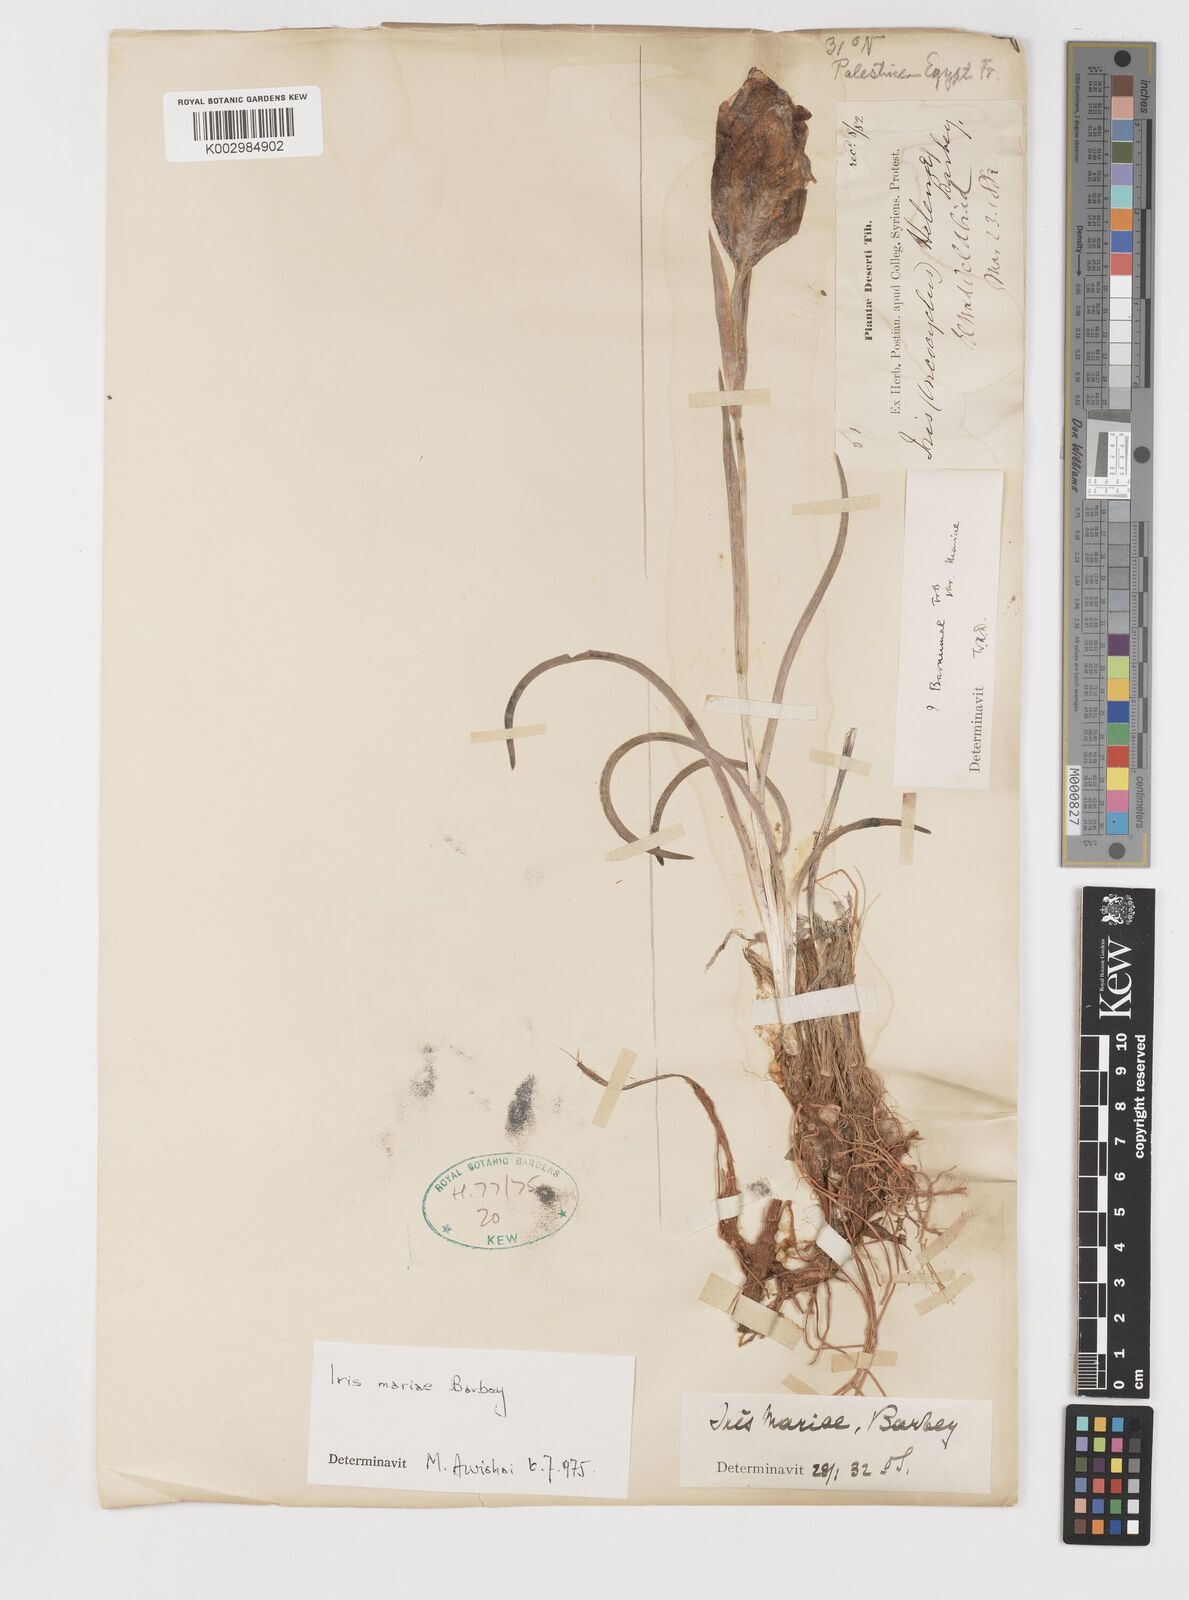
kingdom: Plantae
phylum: Tracheophyta
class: Liliopsida
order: Asparagales
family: Iridaceae
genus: Iris
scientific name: Iris mariae
